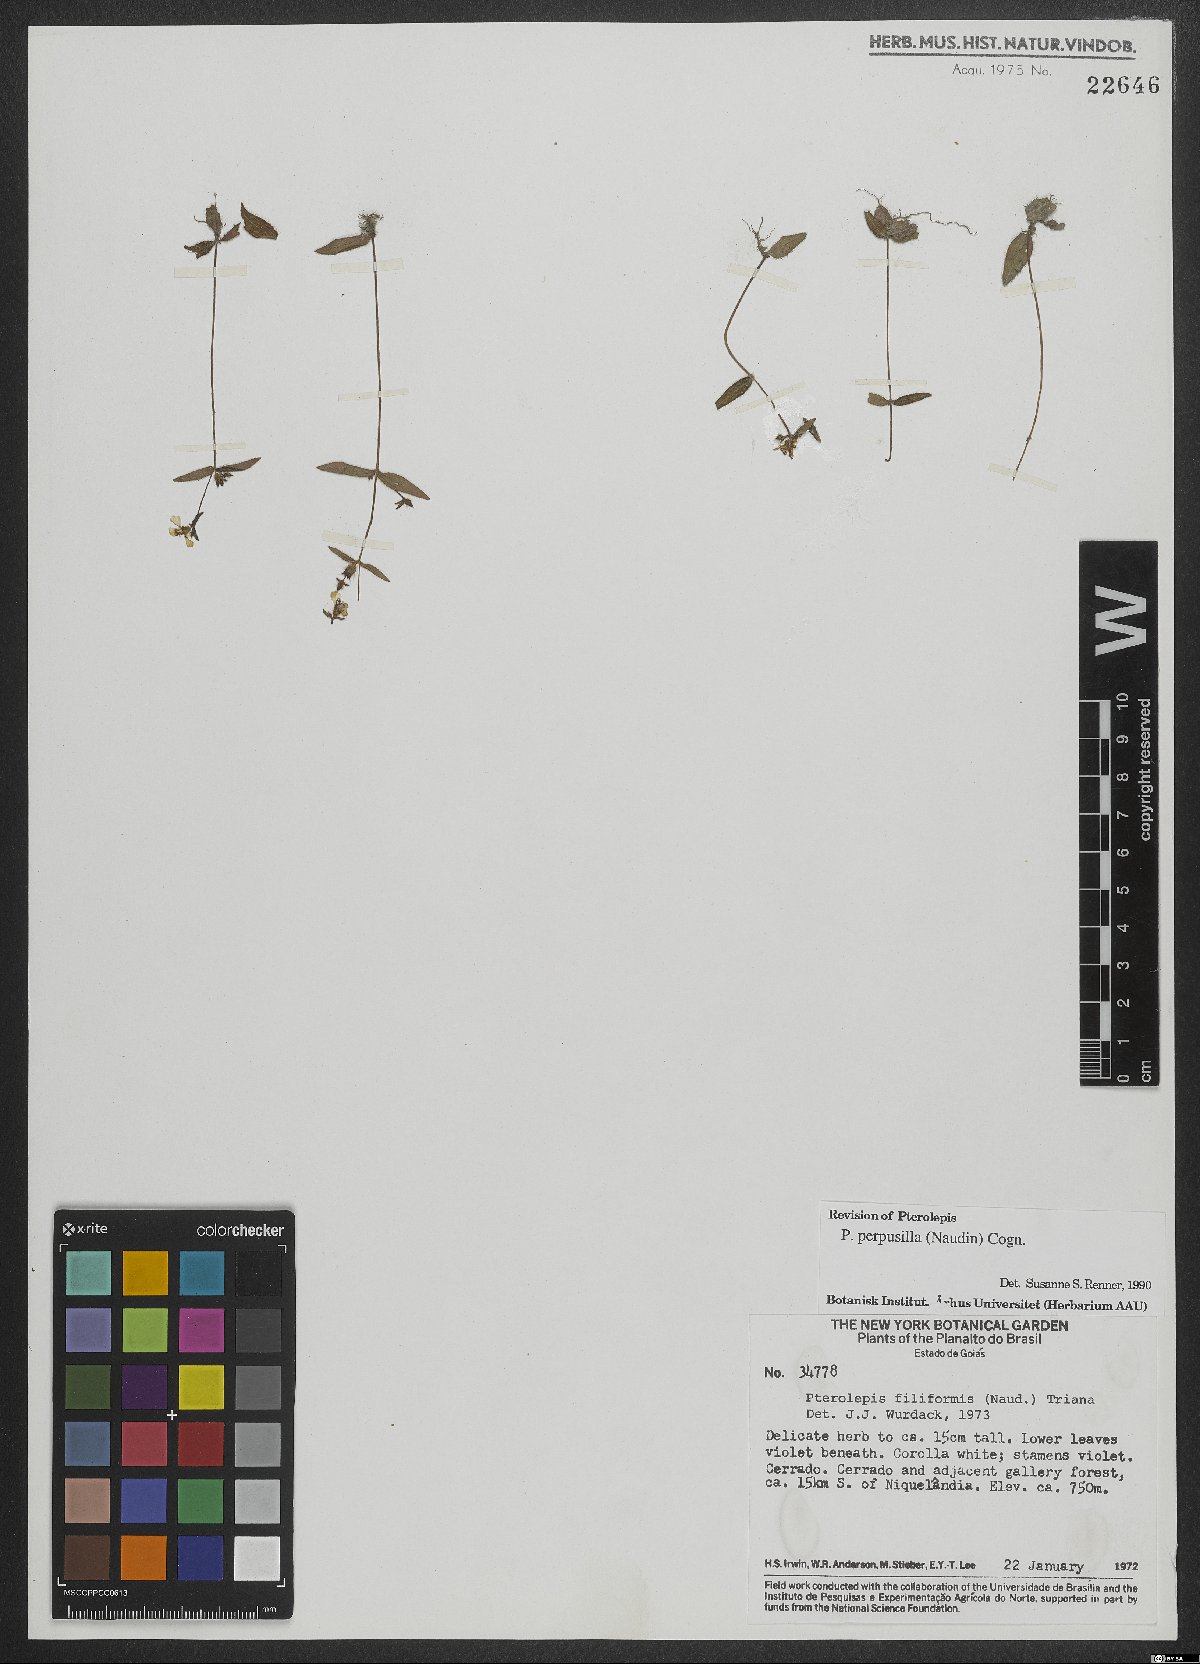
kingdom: Plantae
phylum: Tracheophyta
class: Magnoliopsida
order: Myrtales
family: Melastomataceae
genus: Pterolepis
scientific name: Pterolepis perpusilla
